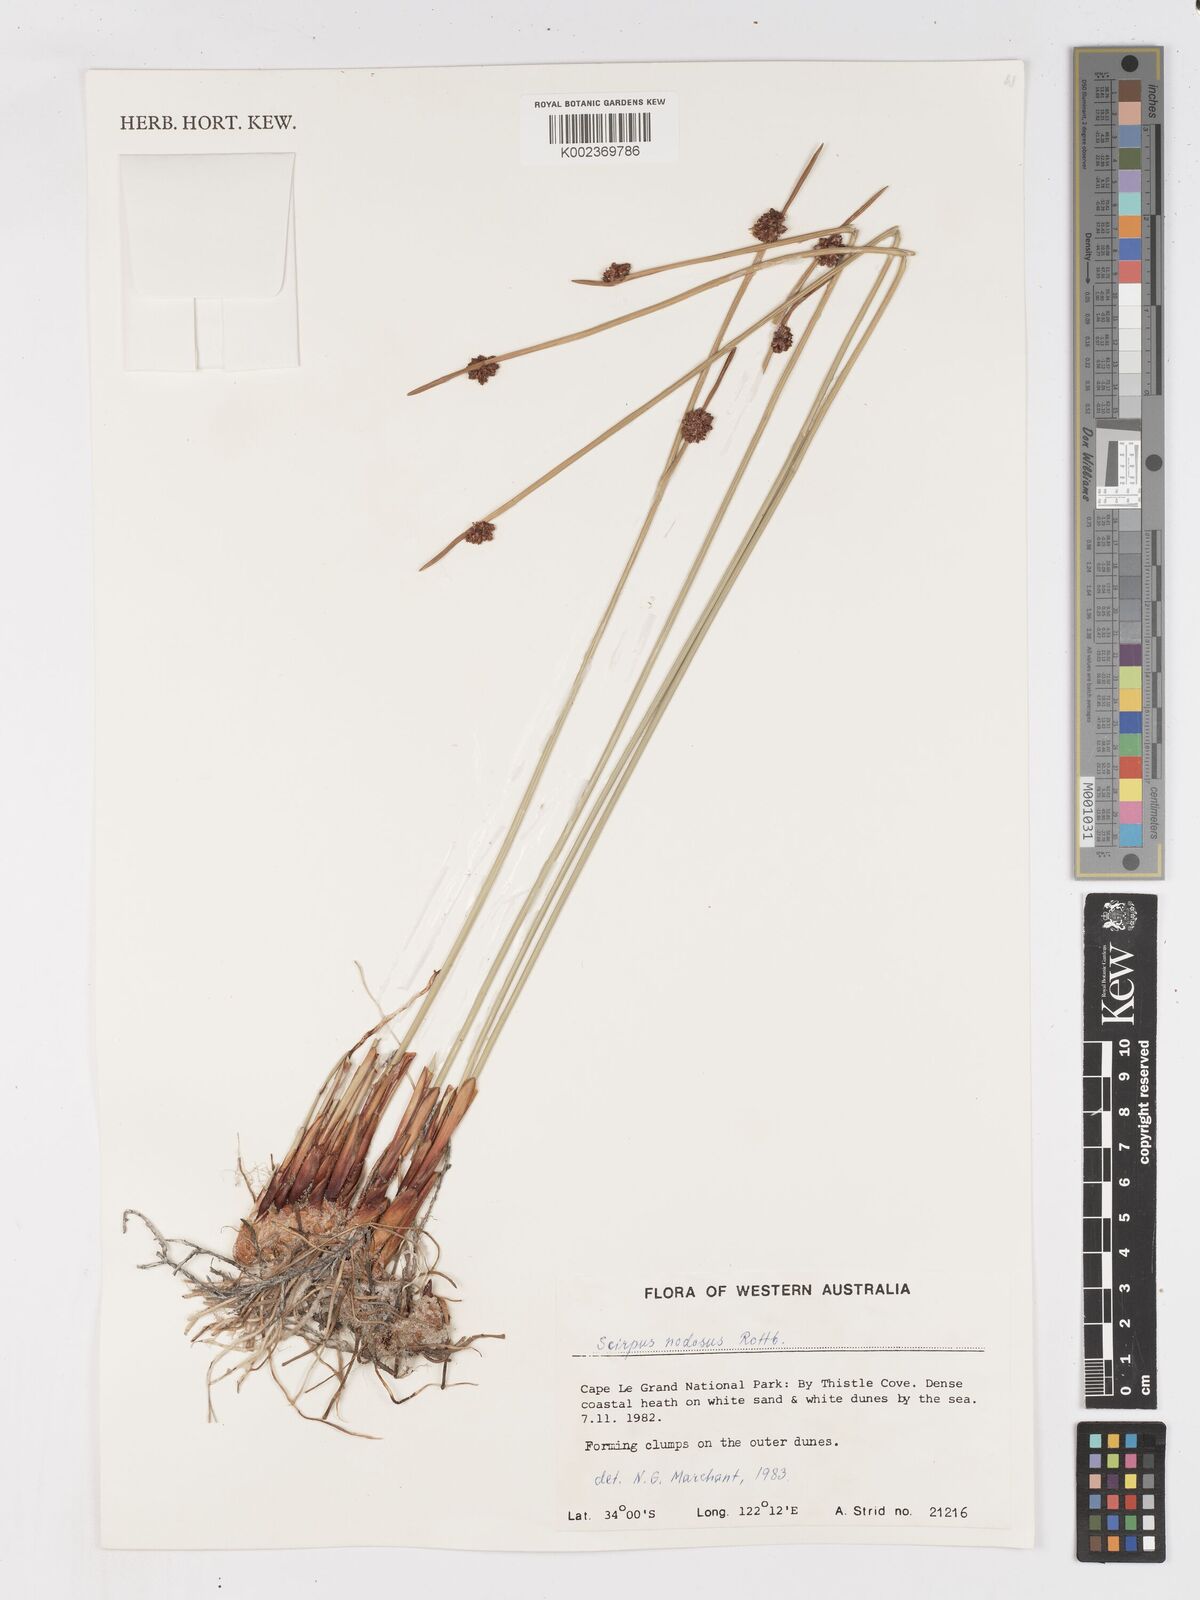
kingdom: Plantae
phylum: Tracheophyta
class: Liliopsida
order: Poales
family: Cyperaceae
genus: Ficinia
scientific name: Ficinia nodosa
